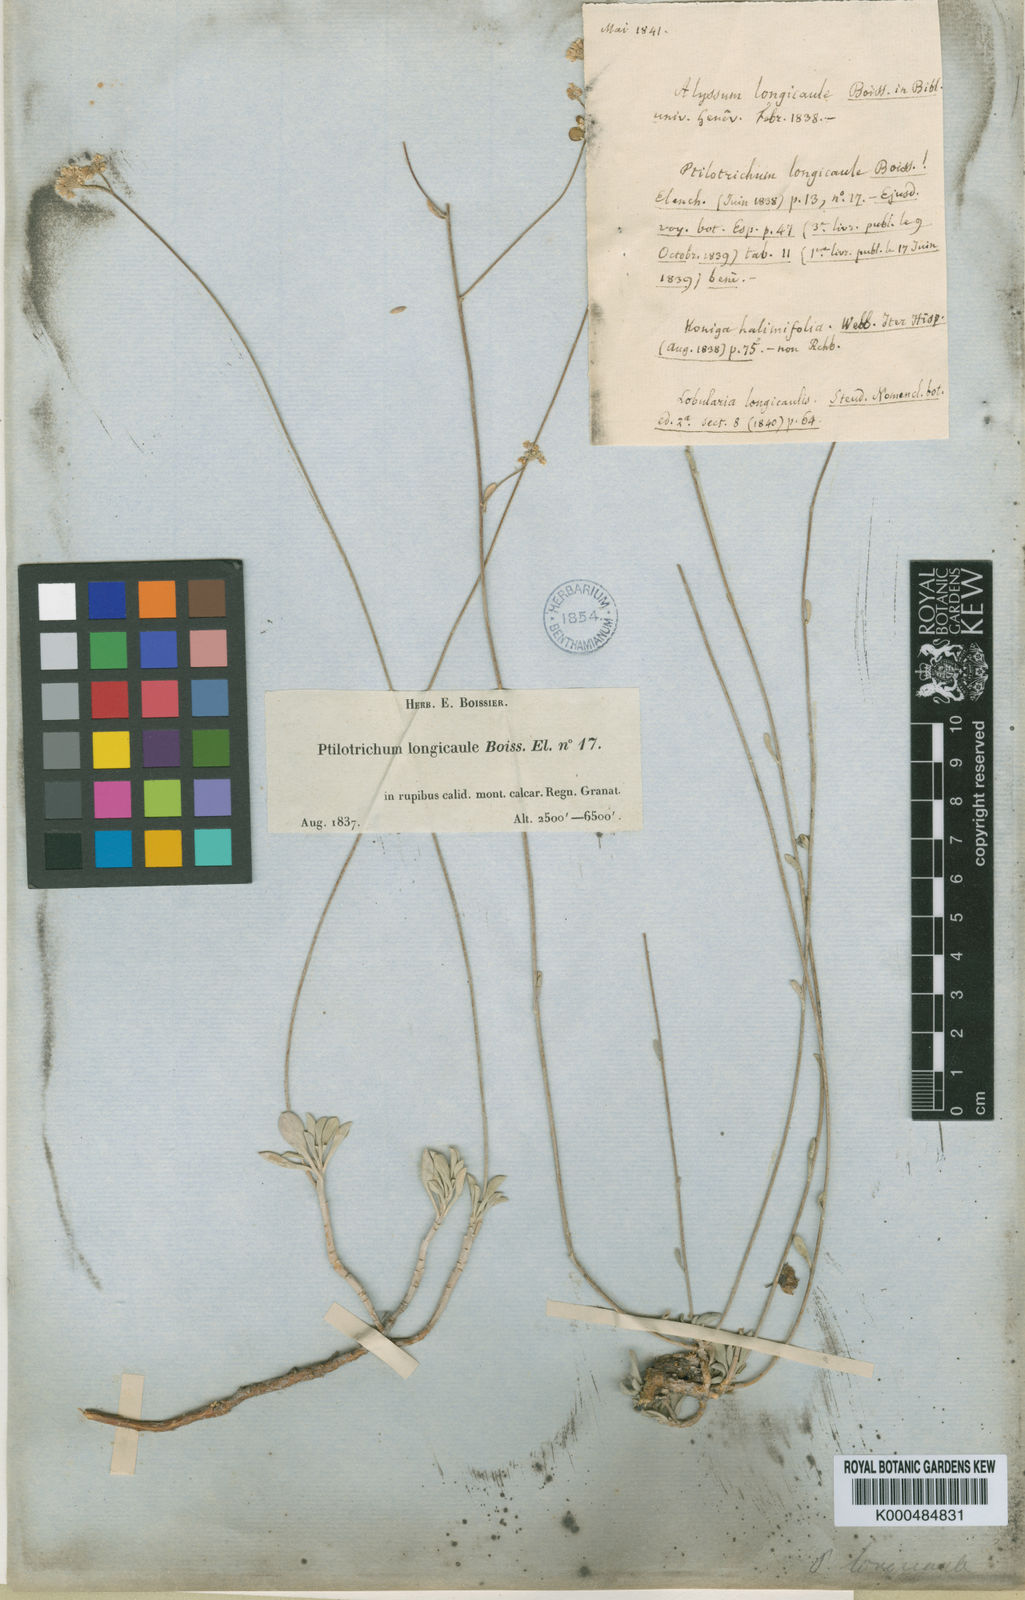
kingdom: Plantae
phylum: Tracheophyta
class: Magnoliopsida
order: Brassicales
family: Brassicaceae
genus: Hormathophylla
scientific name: Hormathophylla longicaulis
